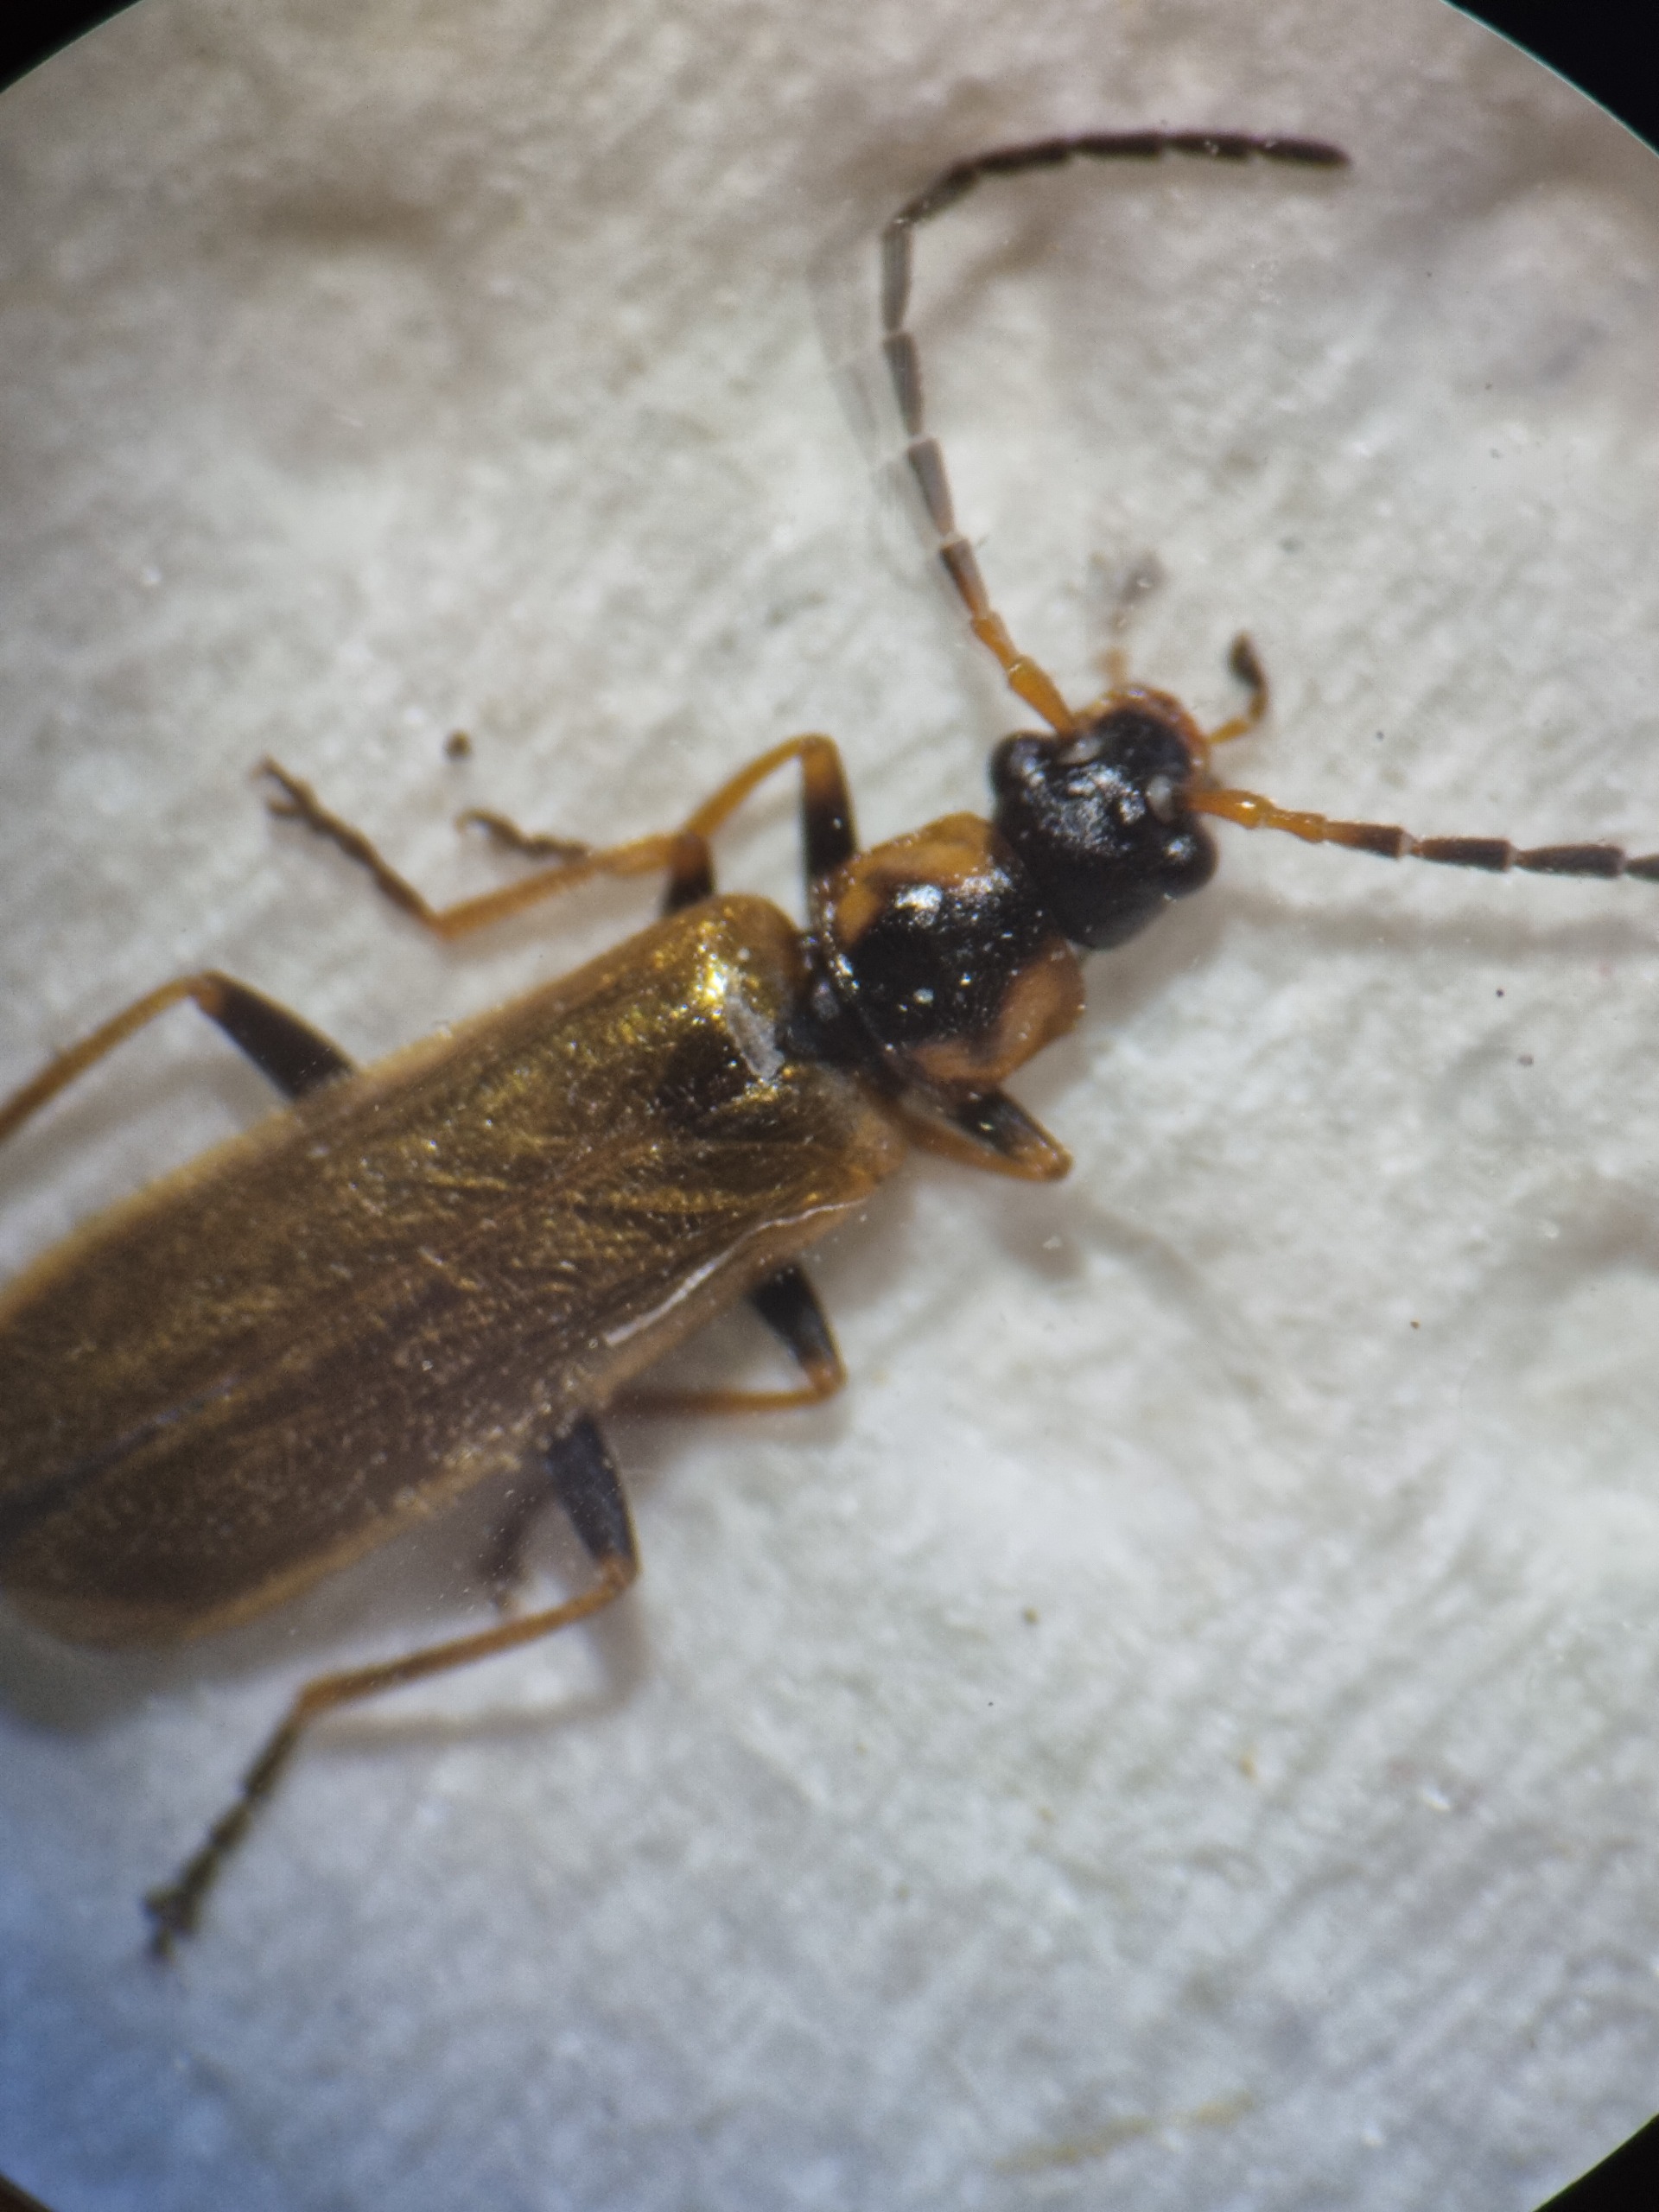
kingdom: Animalia
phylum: Arthropoda
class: Insecta
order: Coleoptera
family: Cantharidae
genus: Rhagonycha
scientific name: Rhagonycha nigriventris
